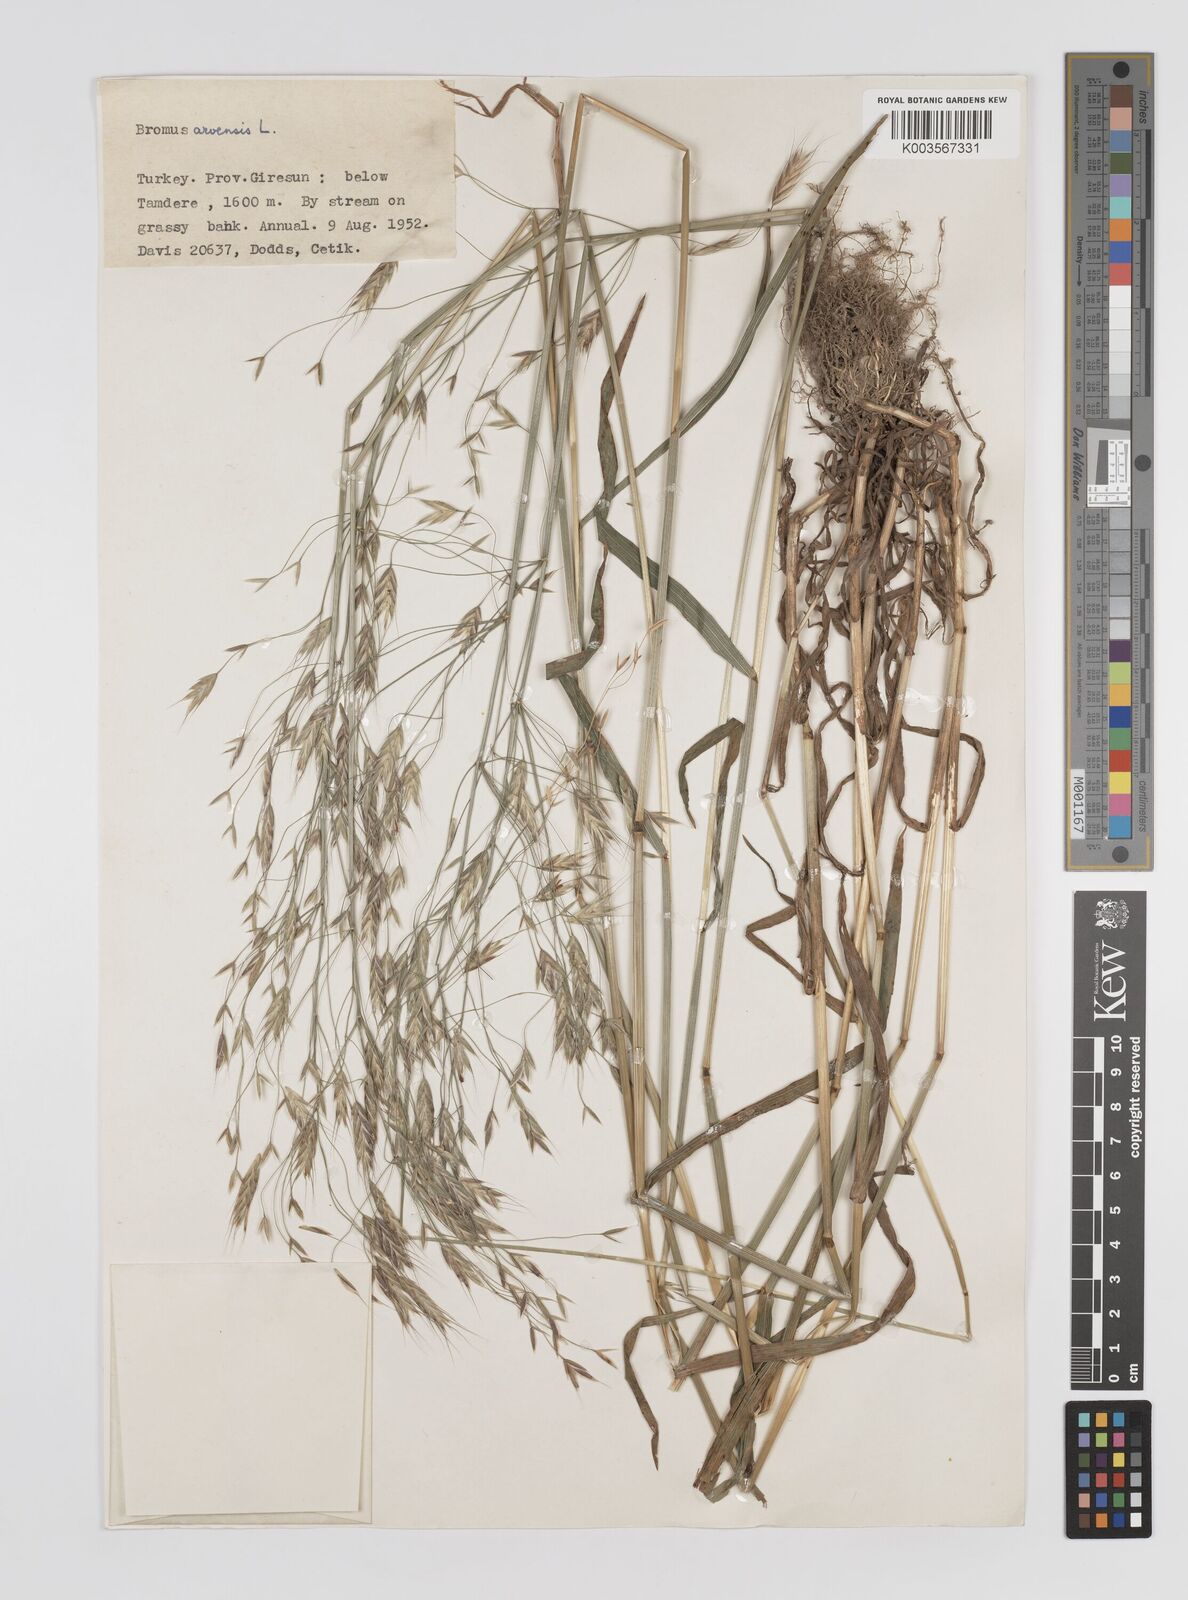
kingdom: Plantae
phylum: Tracheophyta
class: Liliopsida
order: Poales
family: Poaceae
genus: Bromus
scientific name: Bromus erectus
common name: Erect brome
